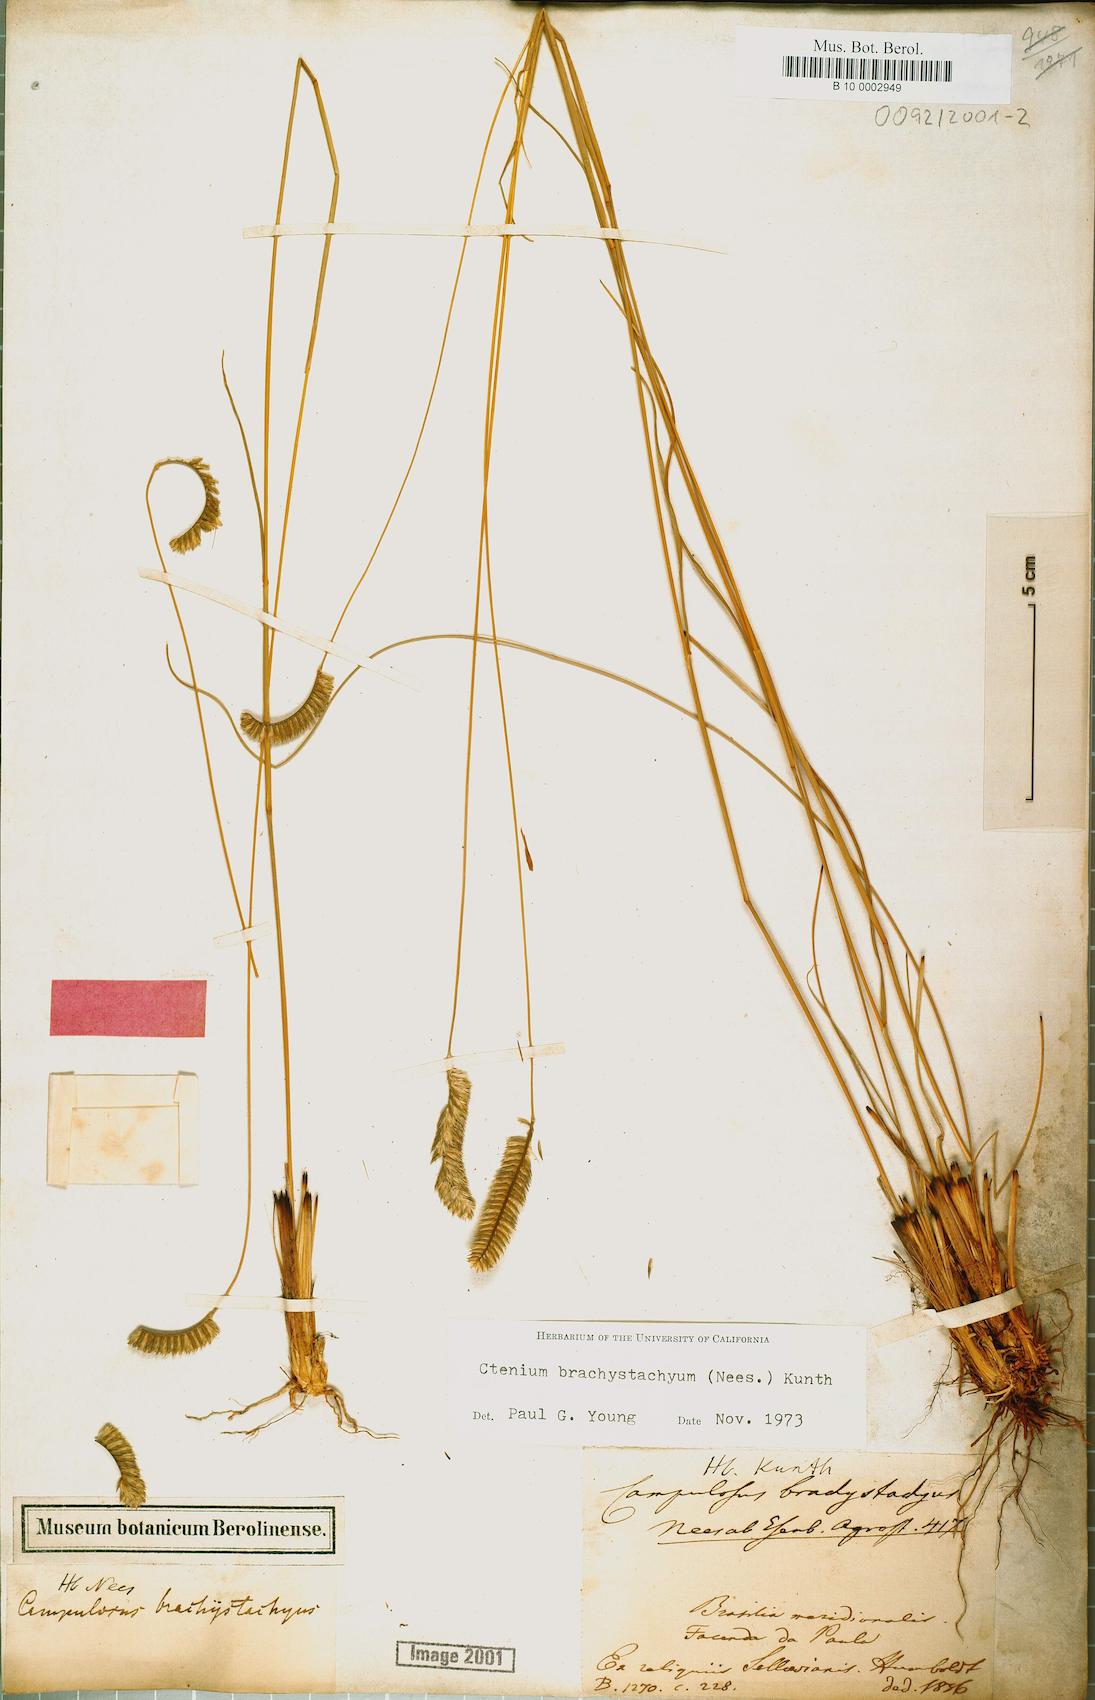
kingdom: Plantae
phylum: Tracheophyta
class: Liliopsida
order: Poales
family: Poaceae
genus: Ctenium
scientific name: Ctenium brachystachyum
